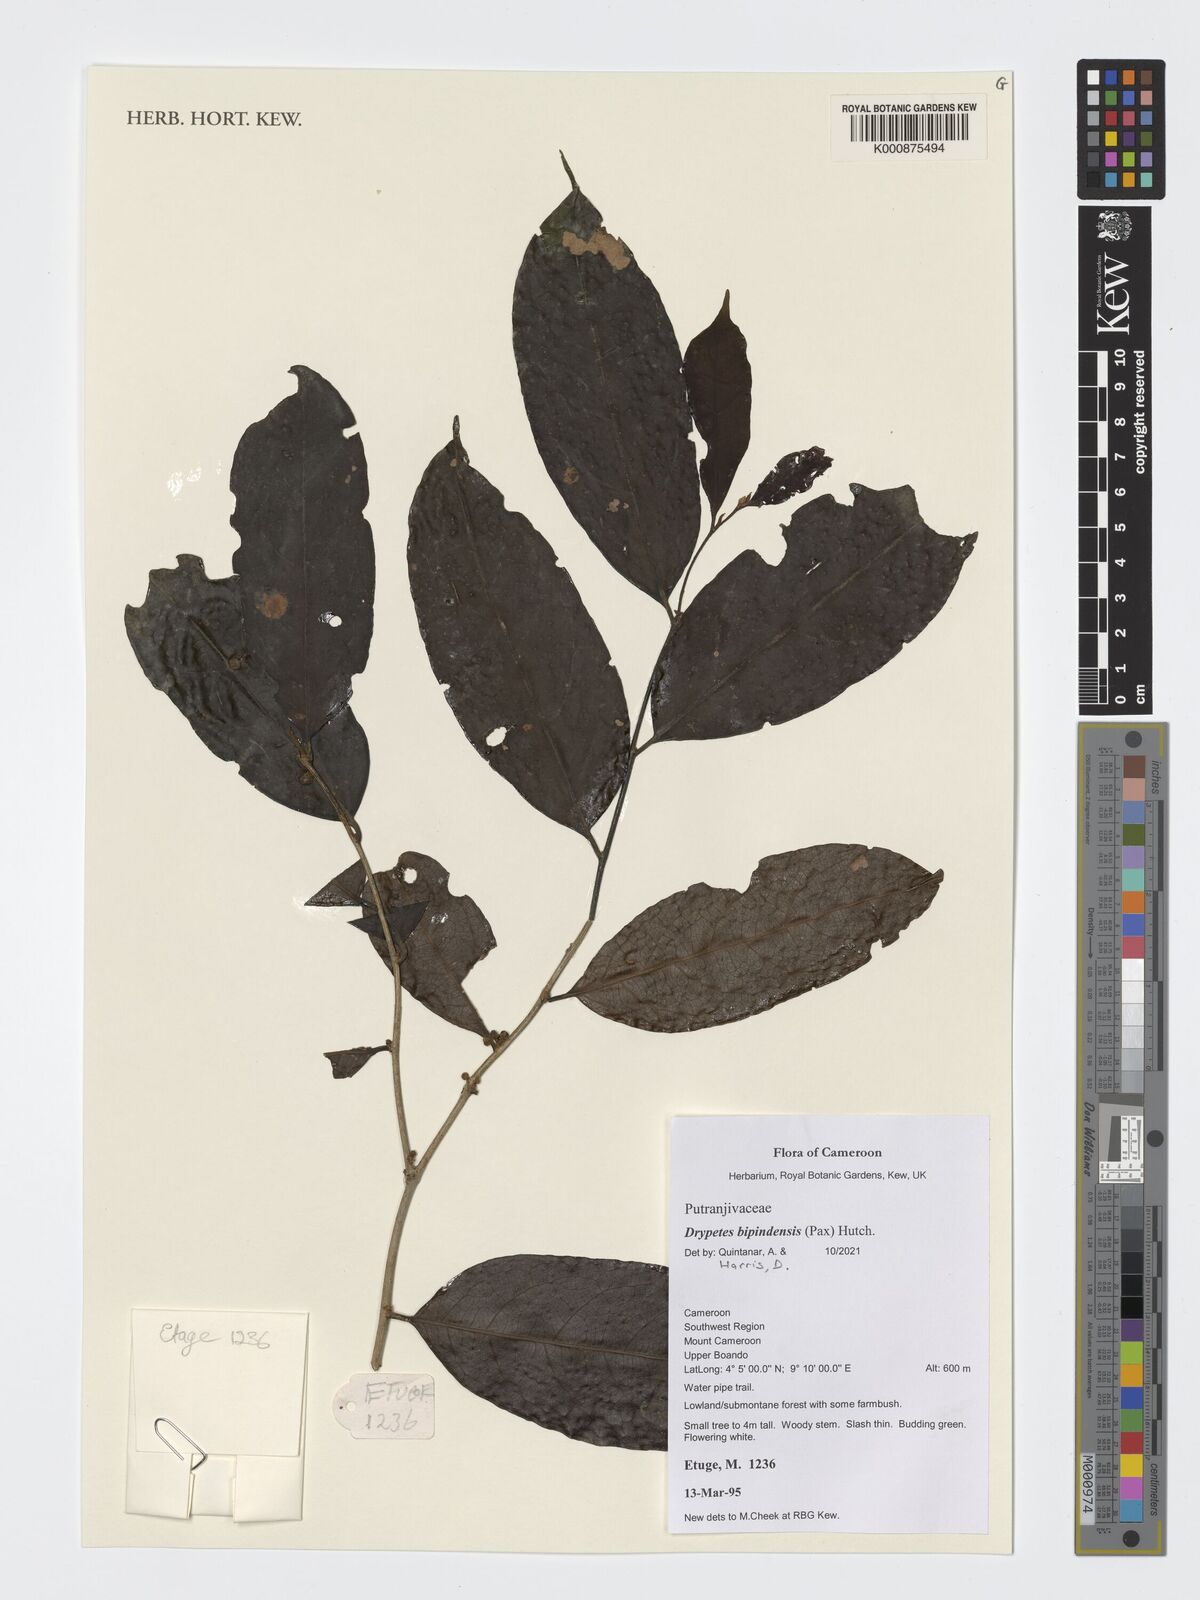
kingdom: Plantae
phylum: Tracheophyta
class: Magnoliopsida
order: Malpighiales
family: Putranjivaceae
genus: Drypetes
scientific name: Drypetes bipindensis
